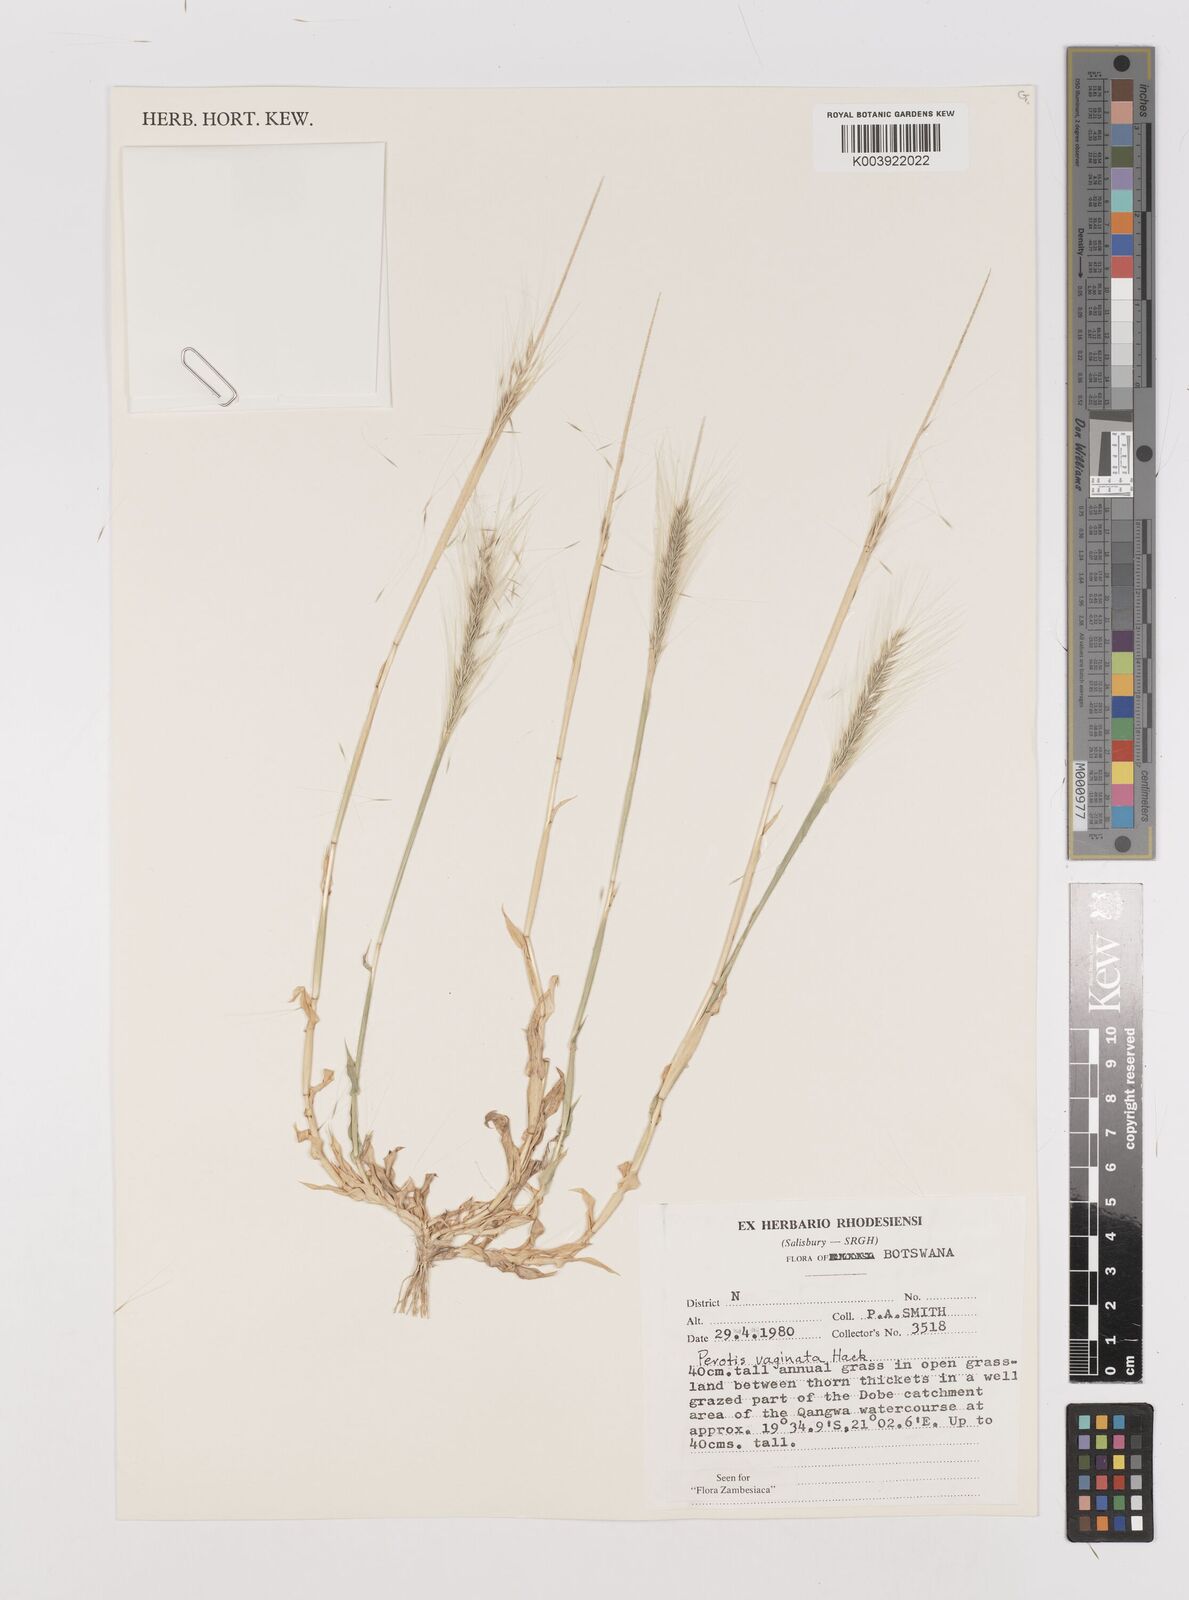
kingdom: Plantae
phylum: Tracheophyta
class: Liliopsida
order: Poales
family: Poaceae
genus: Perotis
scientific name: Perotis vaginata
